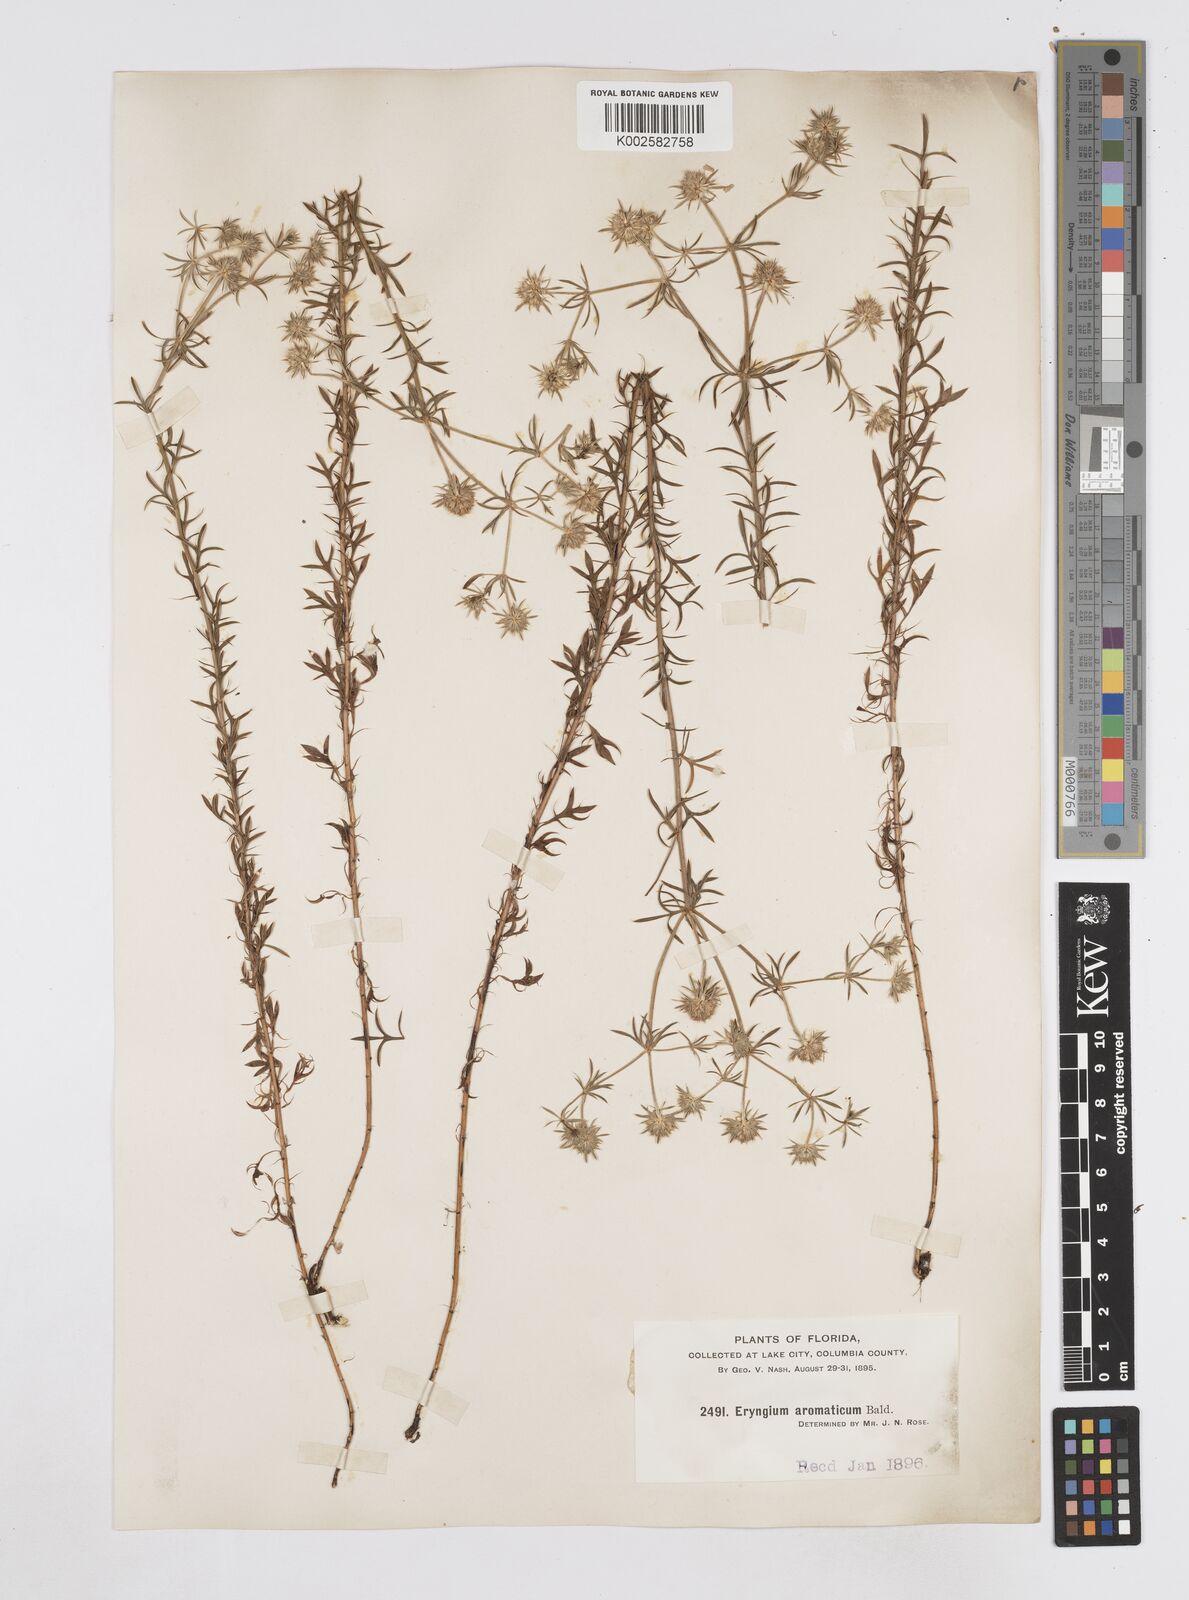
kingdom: Plantae
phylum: Tracheophyta
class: Magnoliopsida
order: Apiales
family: Apiaceae
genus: Eryngium
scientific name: Eryngium aromaticum
